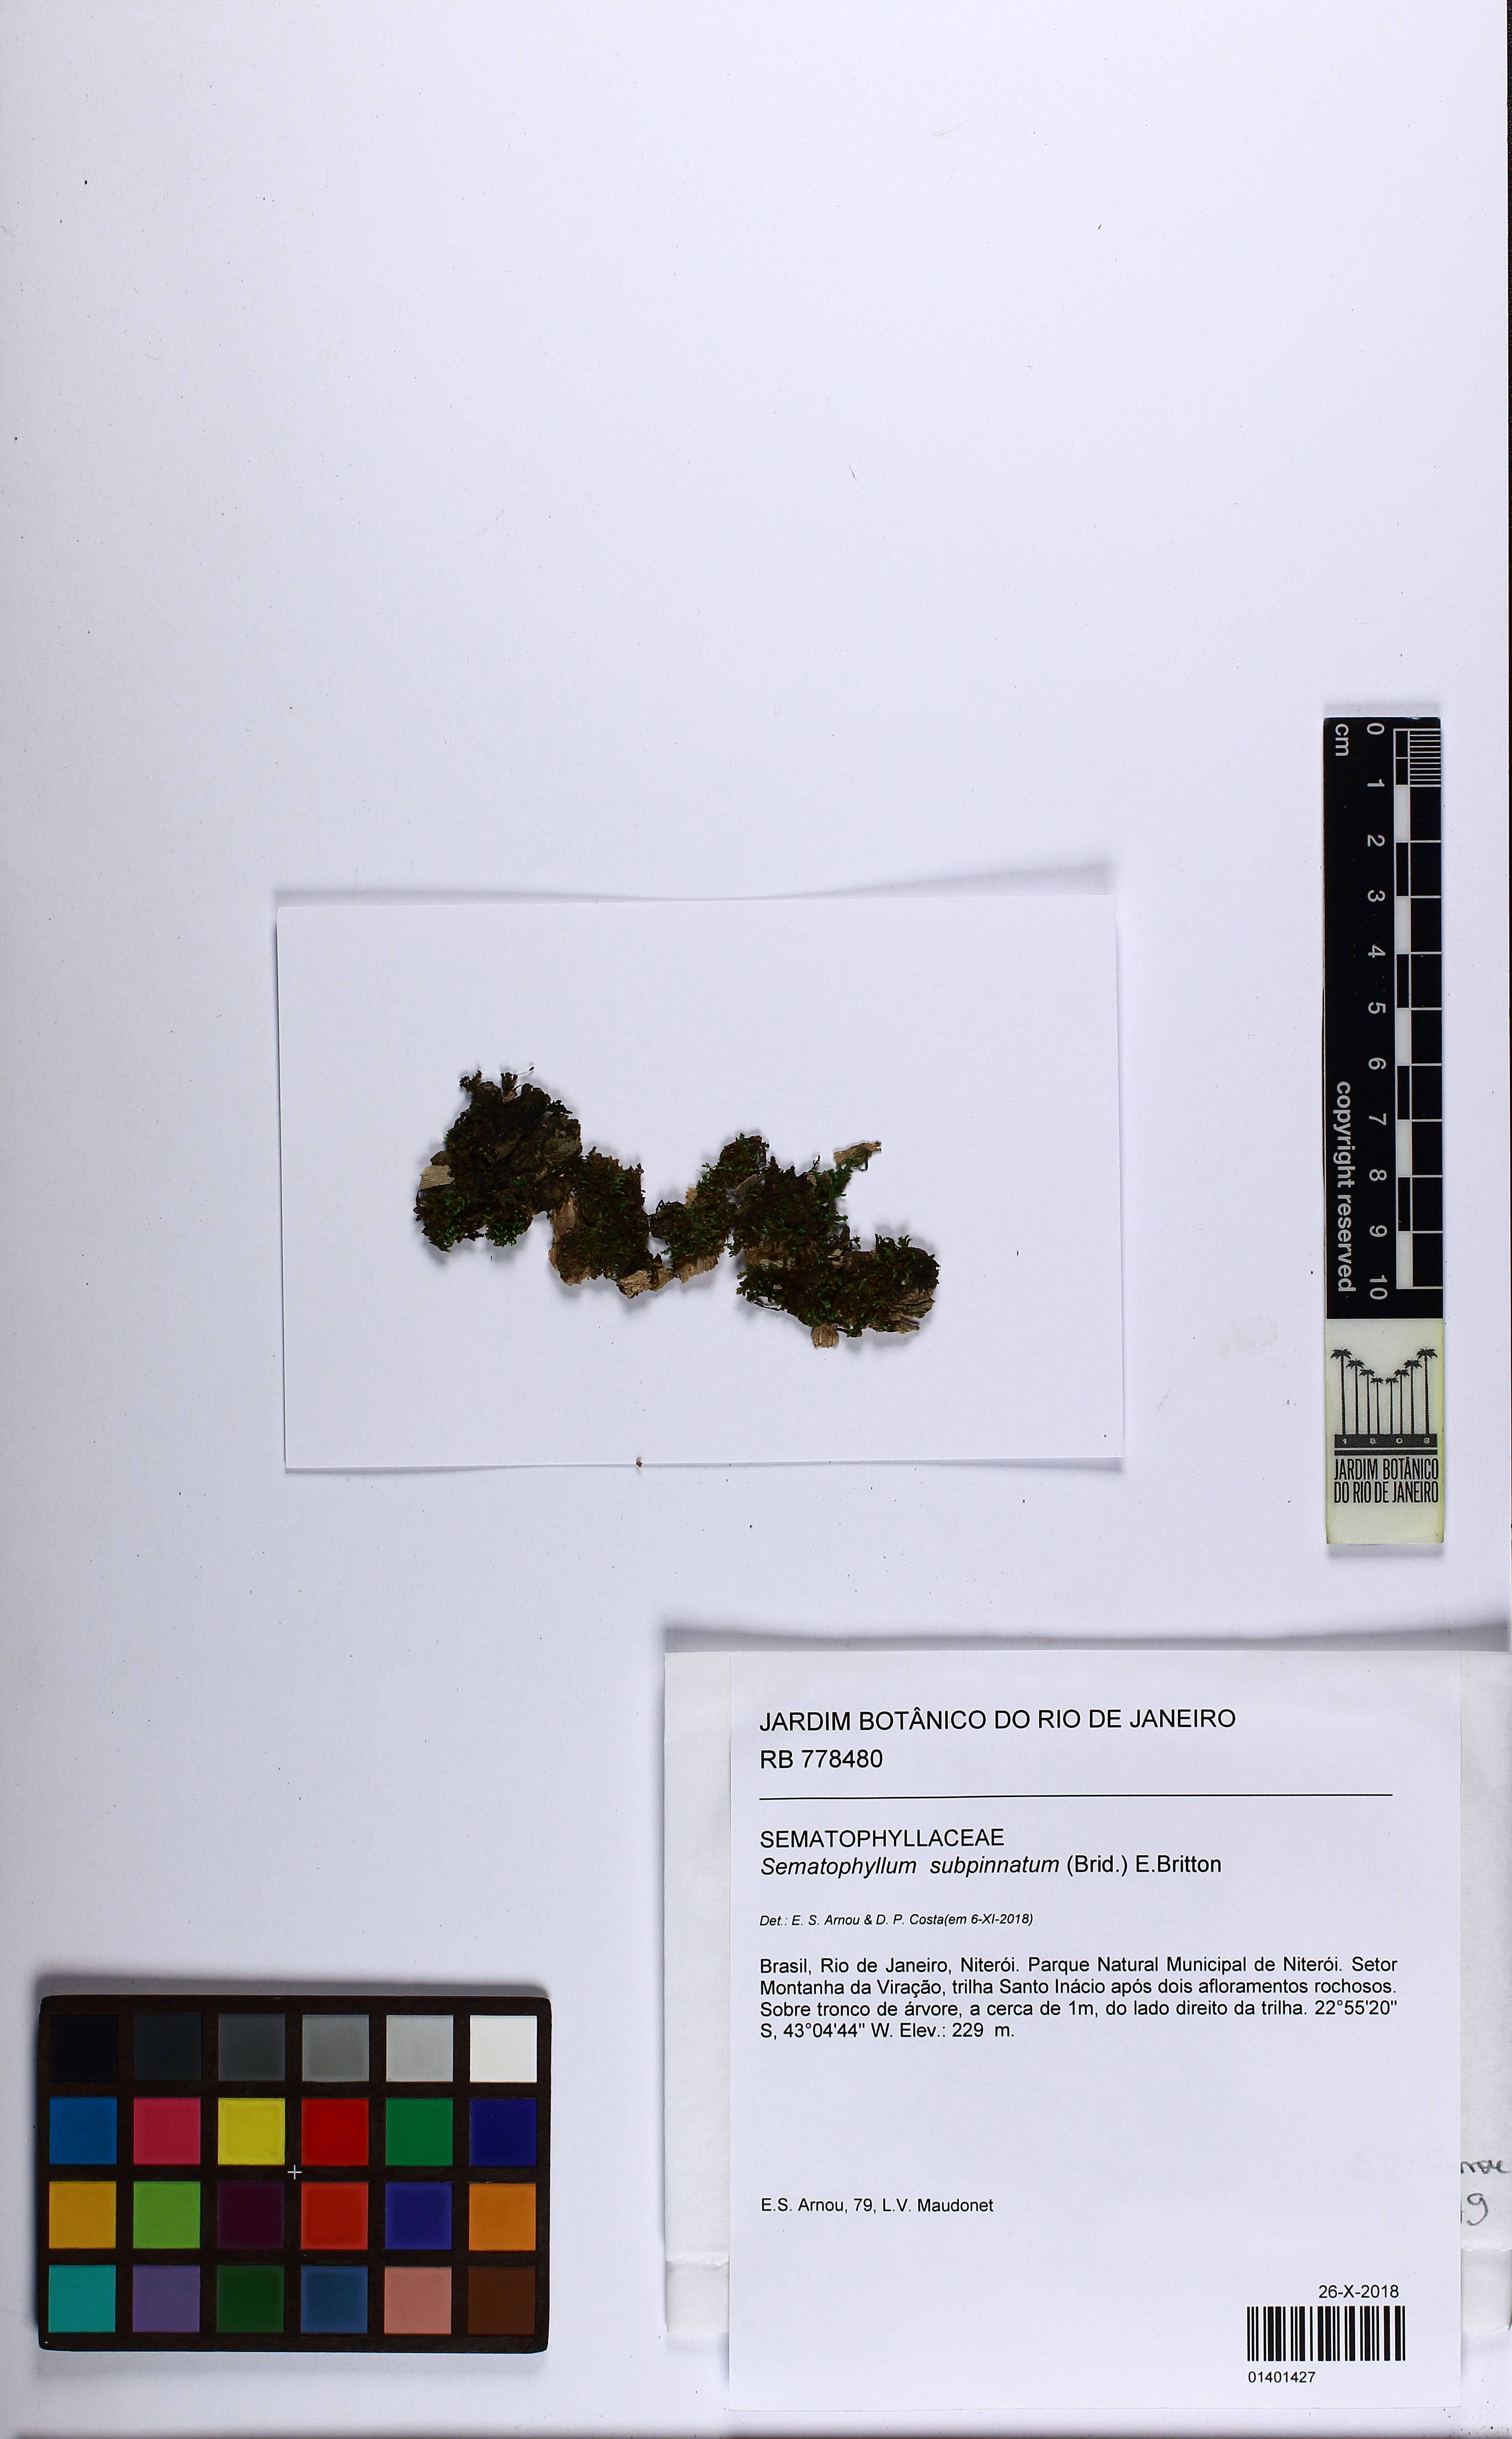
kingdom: Plantae
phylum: Bryophyta
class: Bryopsida
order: Hypnales
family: Sematophyllaceae
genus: Brittonodoxa
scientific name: Brittonodoxa subpinnata
